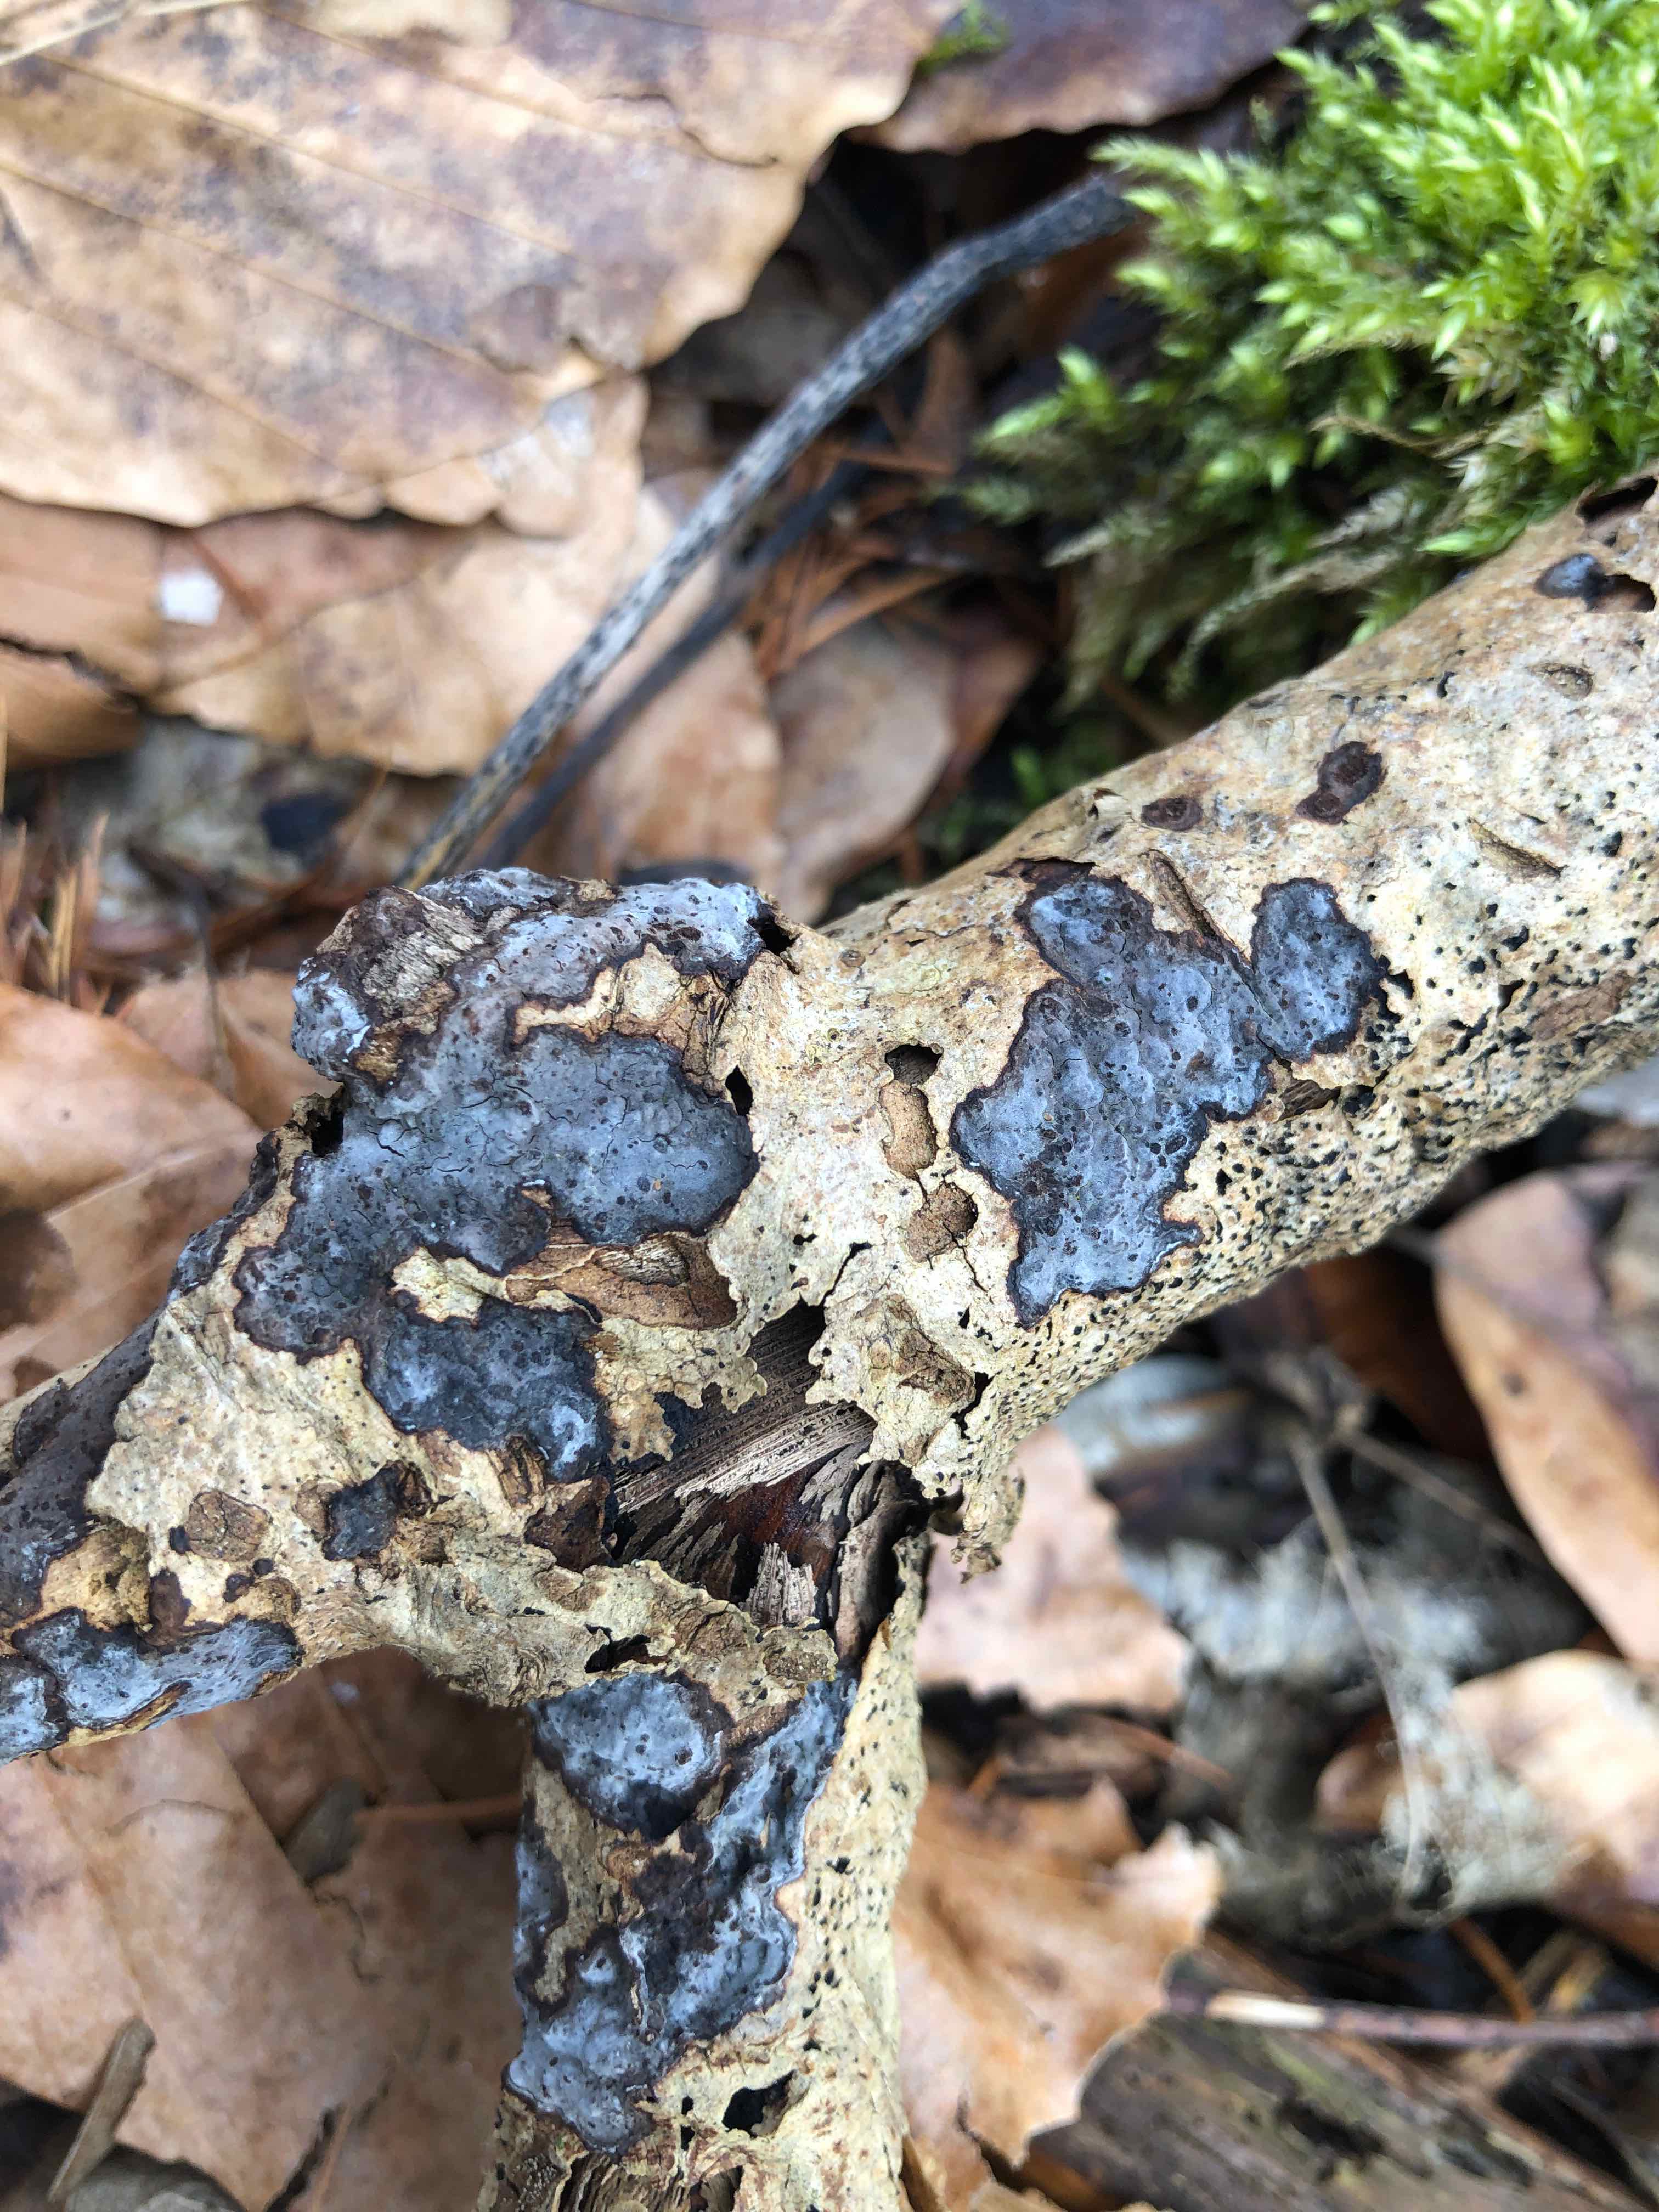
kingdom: Fungi
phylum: Basidiomycota
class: Agaricomycetes
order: Russulales
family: Peniophoraceae
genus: Peniophora
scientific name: Peniophora limitata
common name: mørkrandet voksskind
